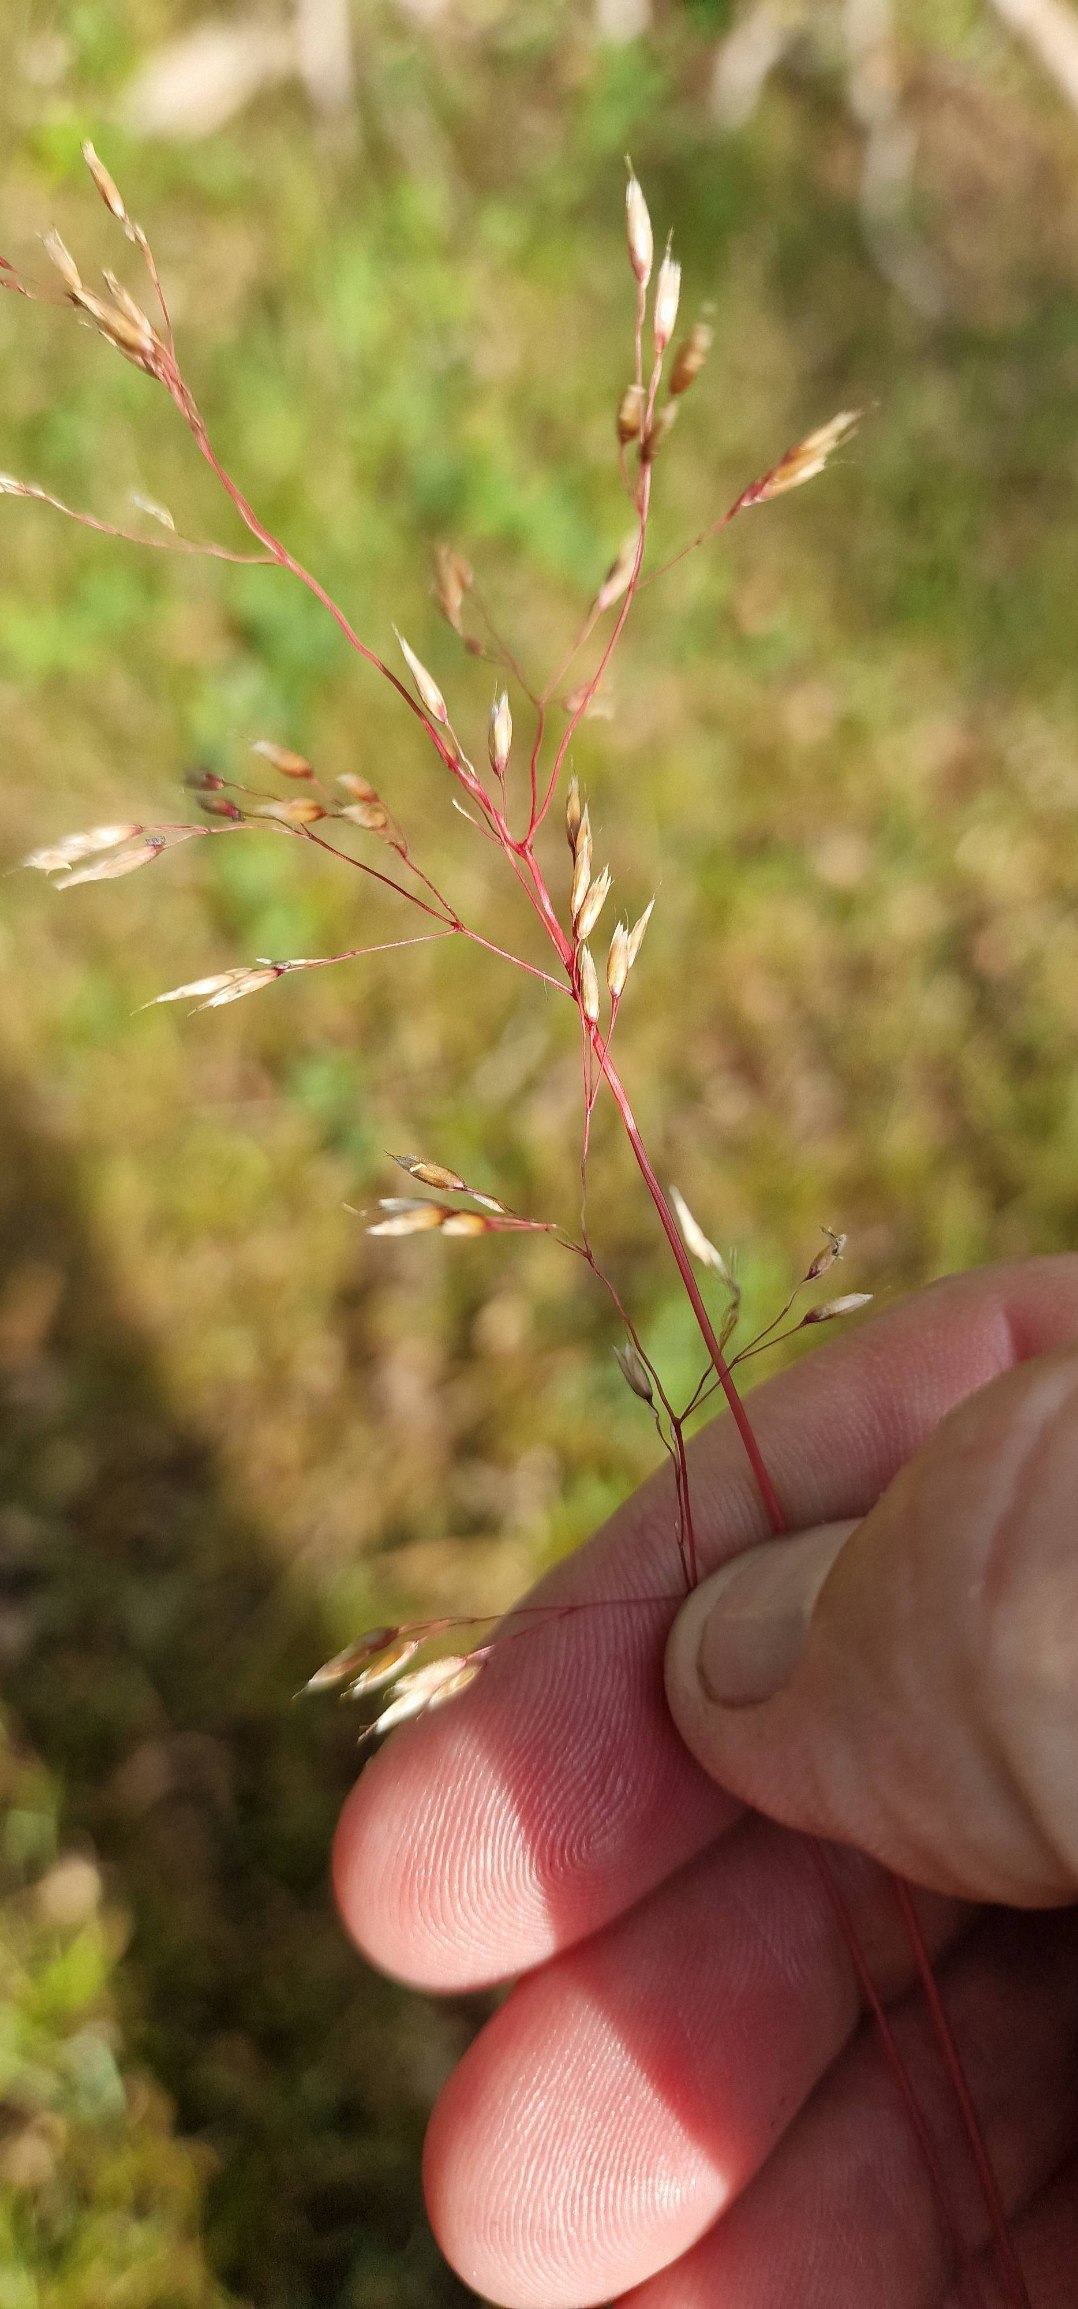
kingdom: Plantae
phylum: Tracheophyta
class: Liliopsida
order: Poales
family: Poaceae
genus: Avenella
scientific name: Avenella flexuosa
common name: Bølget bunke
